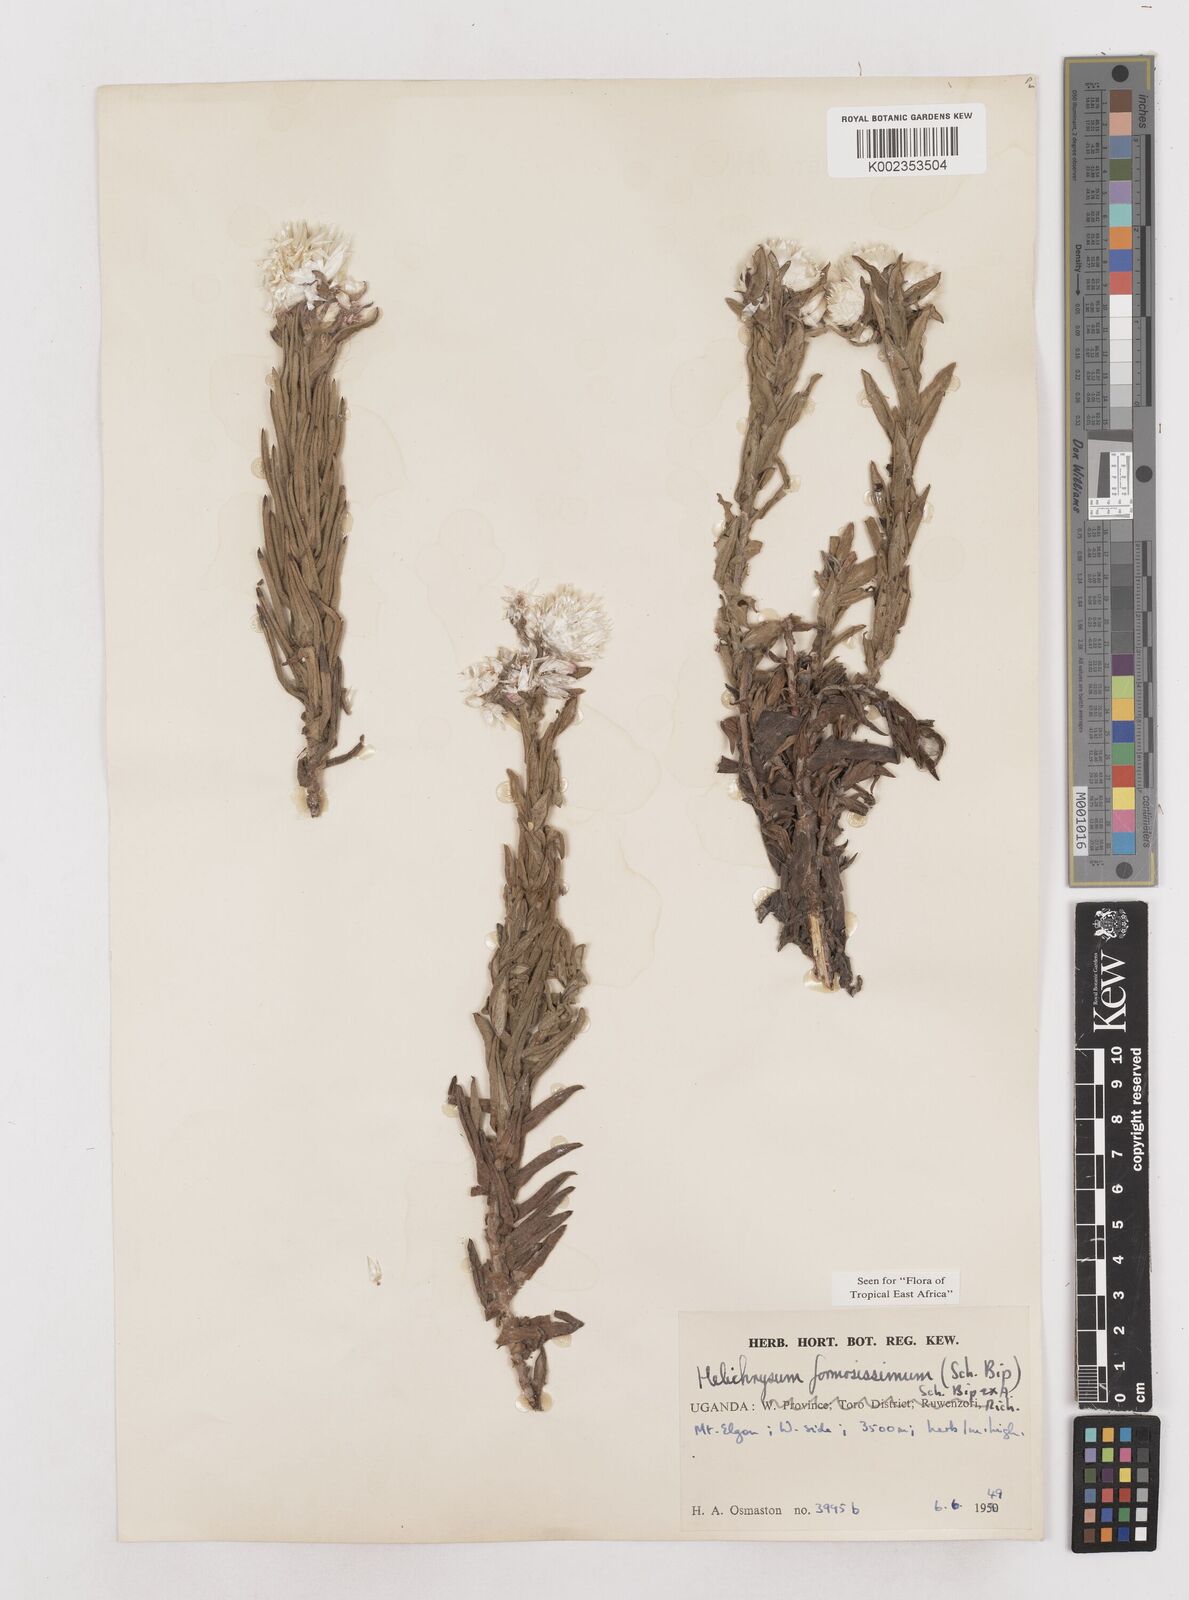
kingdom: Plantae
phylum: Tracheophyta
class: Magnoliopsida
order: Asterales
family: Asteraceae
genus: Helichrysum
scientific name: Helichrysum formosissimum
